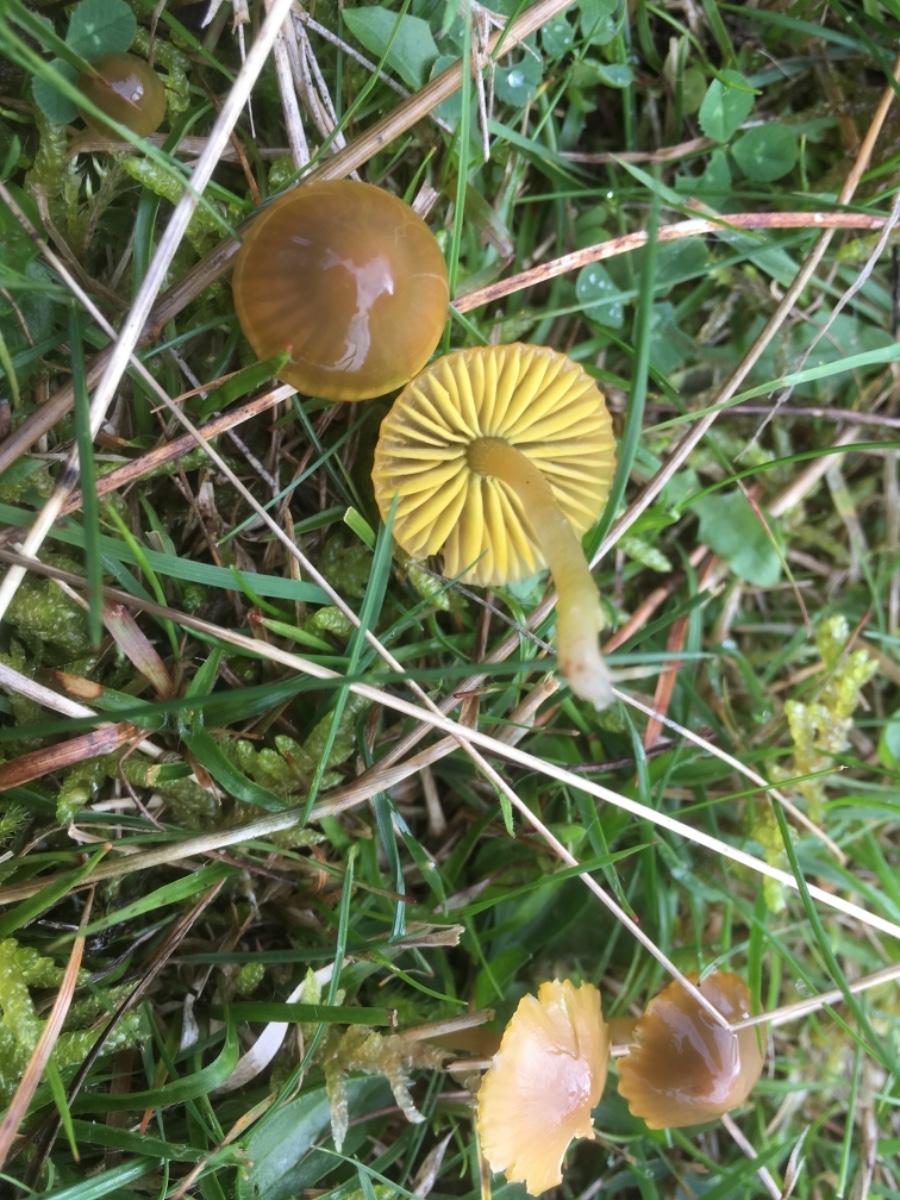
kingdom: Fungi
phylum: Basidiomycota
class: Agaricomycetes
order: Agaricales
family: Hygrophoraceae
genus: Gliophorus
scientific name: Gliophorus psittacinus
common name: papegøje-vokshat
